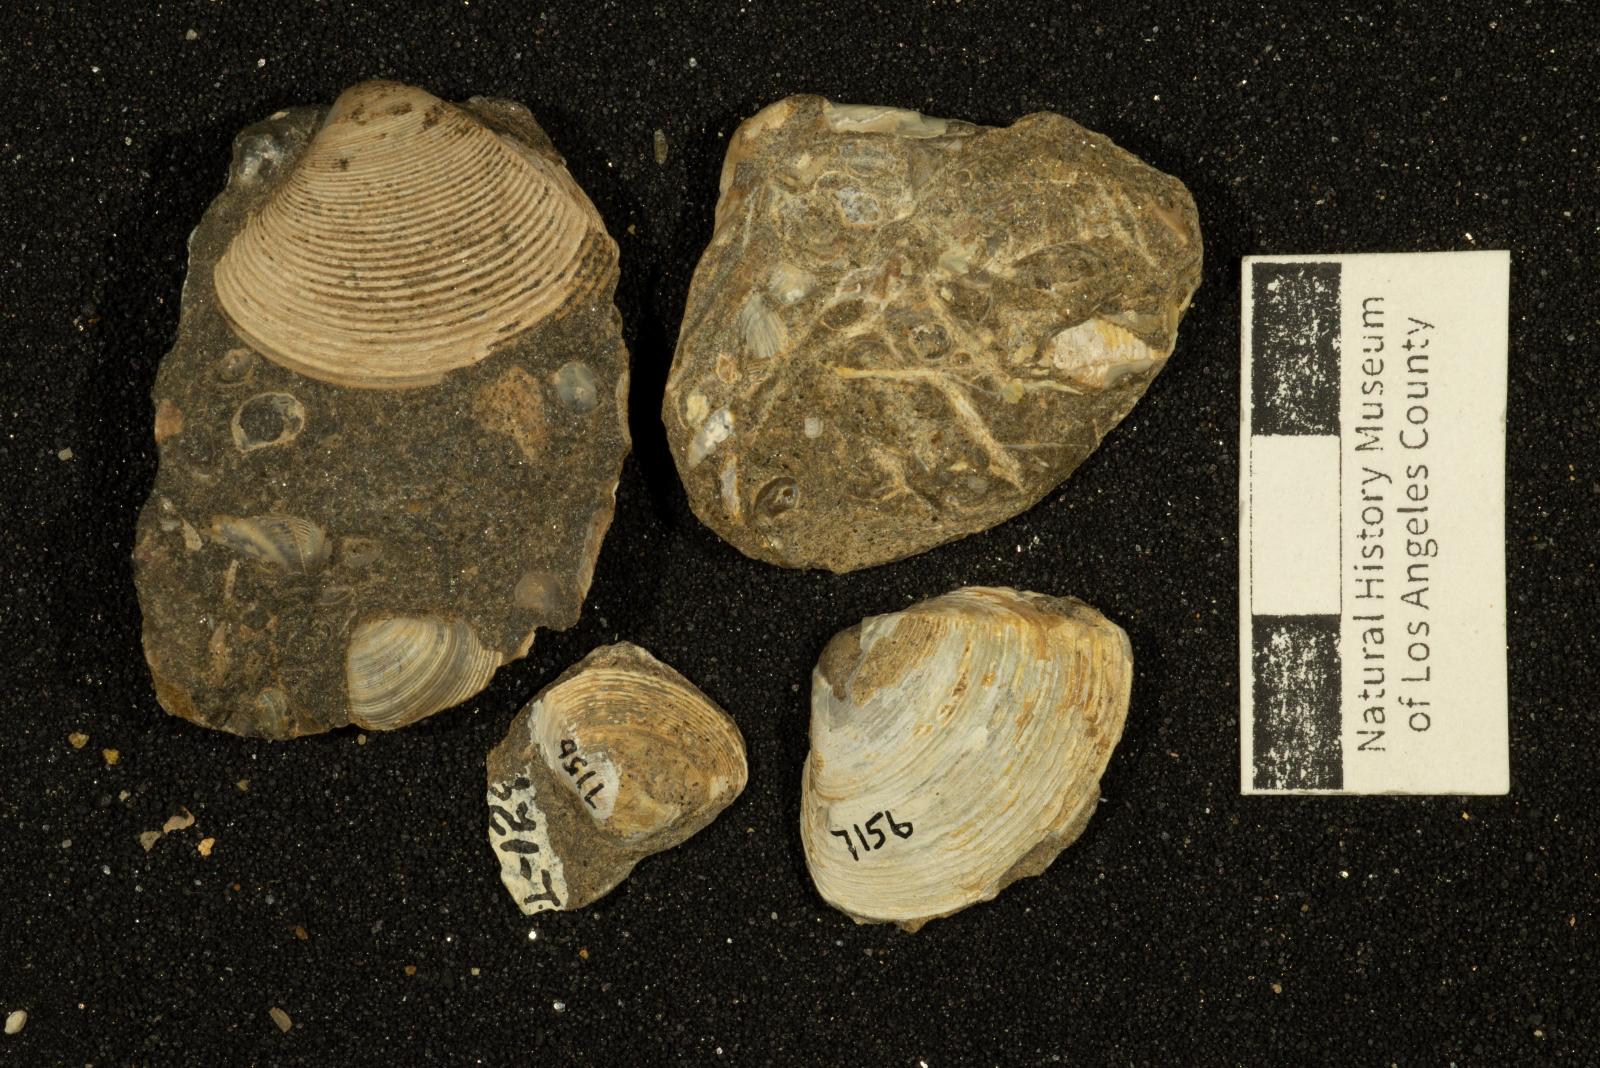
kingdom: Animalia
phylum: Mollusca
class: Bivalvia
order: Venerida
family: Mactridae
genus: Cymbophora
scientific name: Cymbophora popenoei
